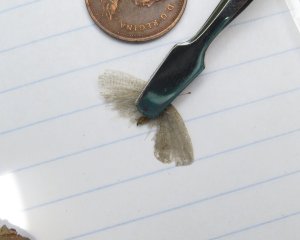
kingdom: Animalia
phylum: Arthropoda
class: Insecta
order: Lepidoptera
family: Lycaenidae
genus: Celastrina
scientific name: Celastrina lucia
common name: Northern Spring Azure
